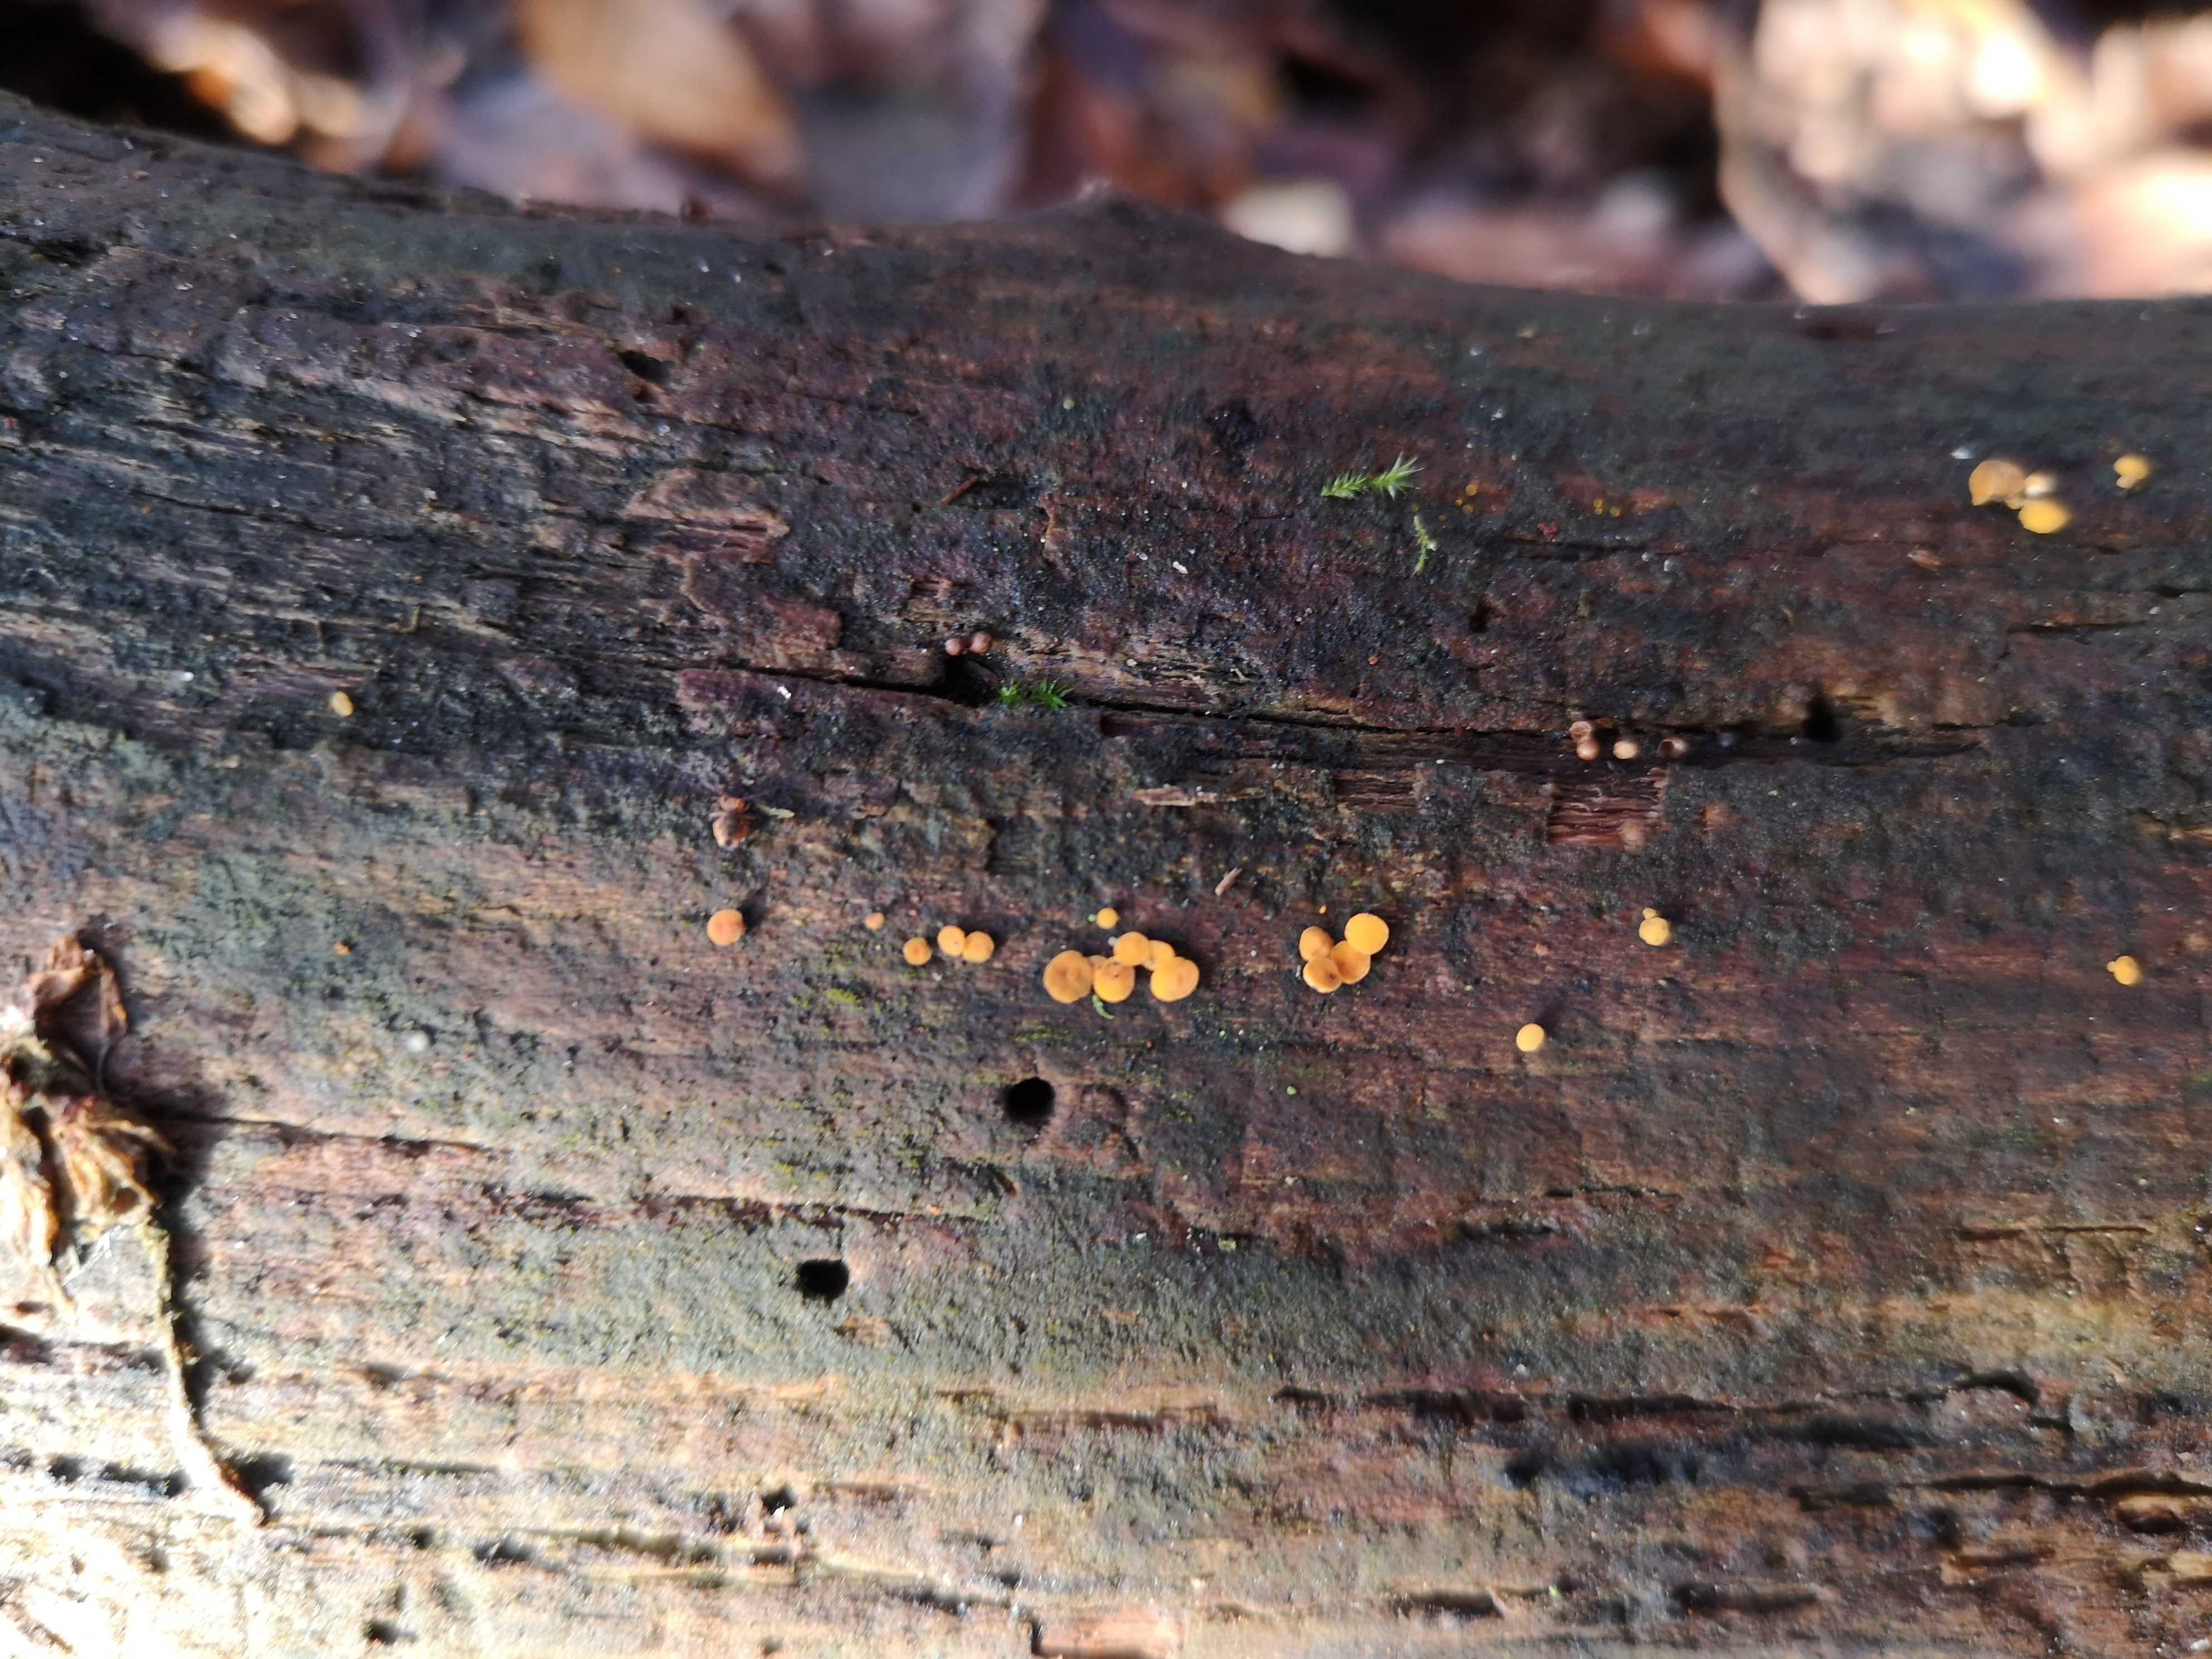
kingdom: Fungi
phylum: Ascomycota
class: Leotiomycetes
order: Helotiales
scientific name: Helotiales
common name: stilkskiveordenen
